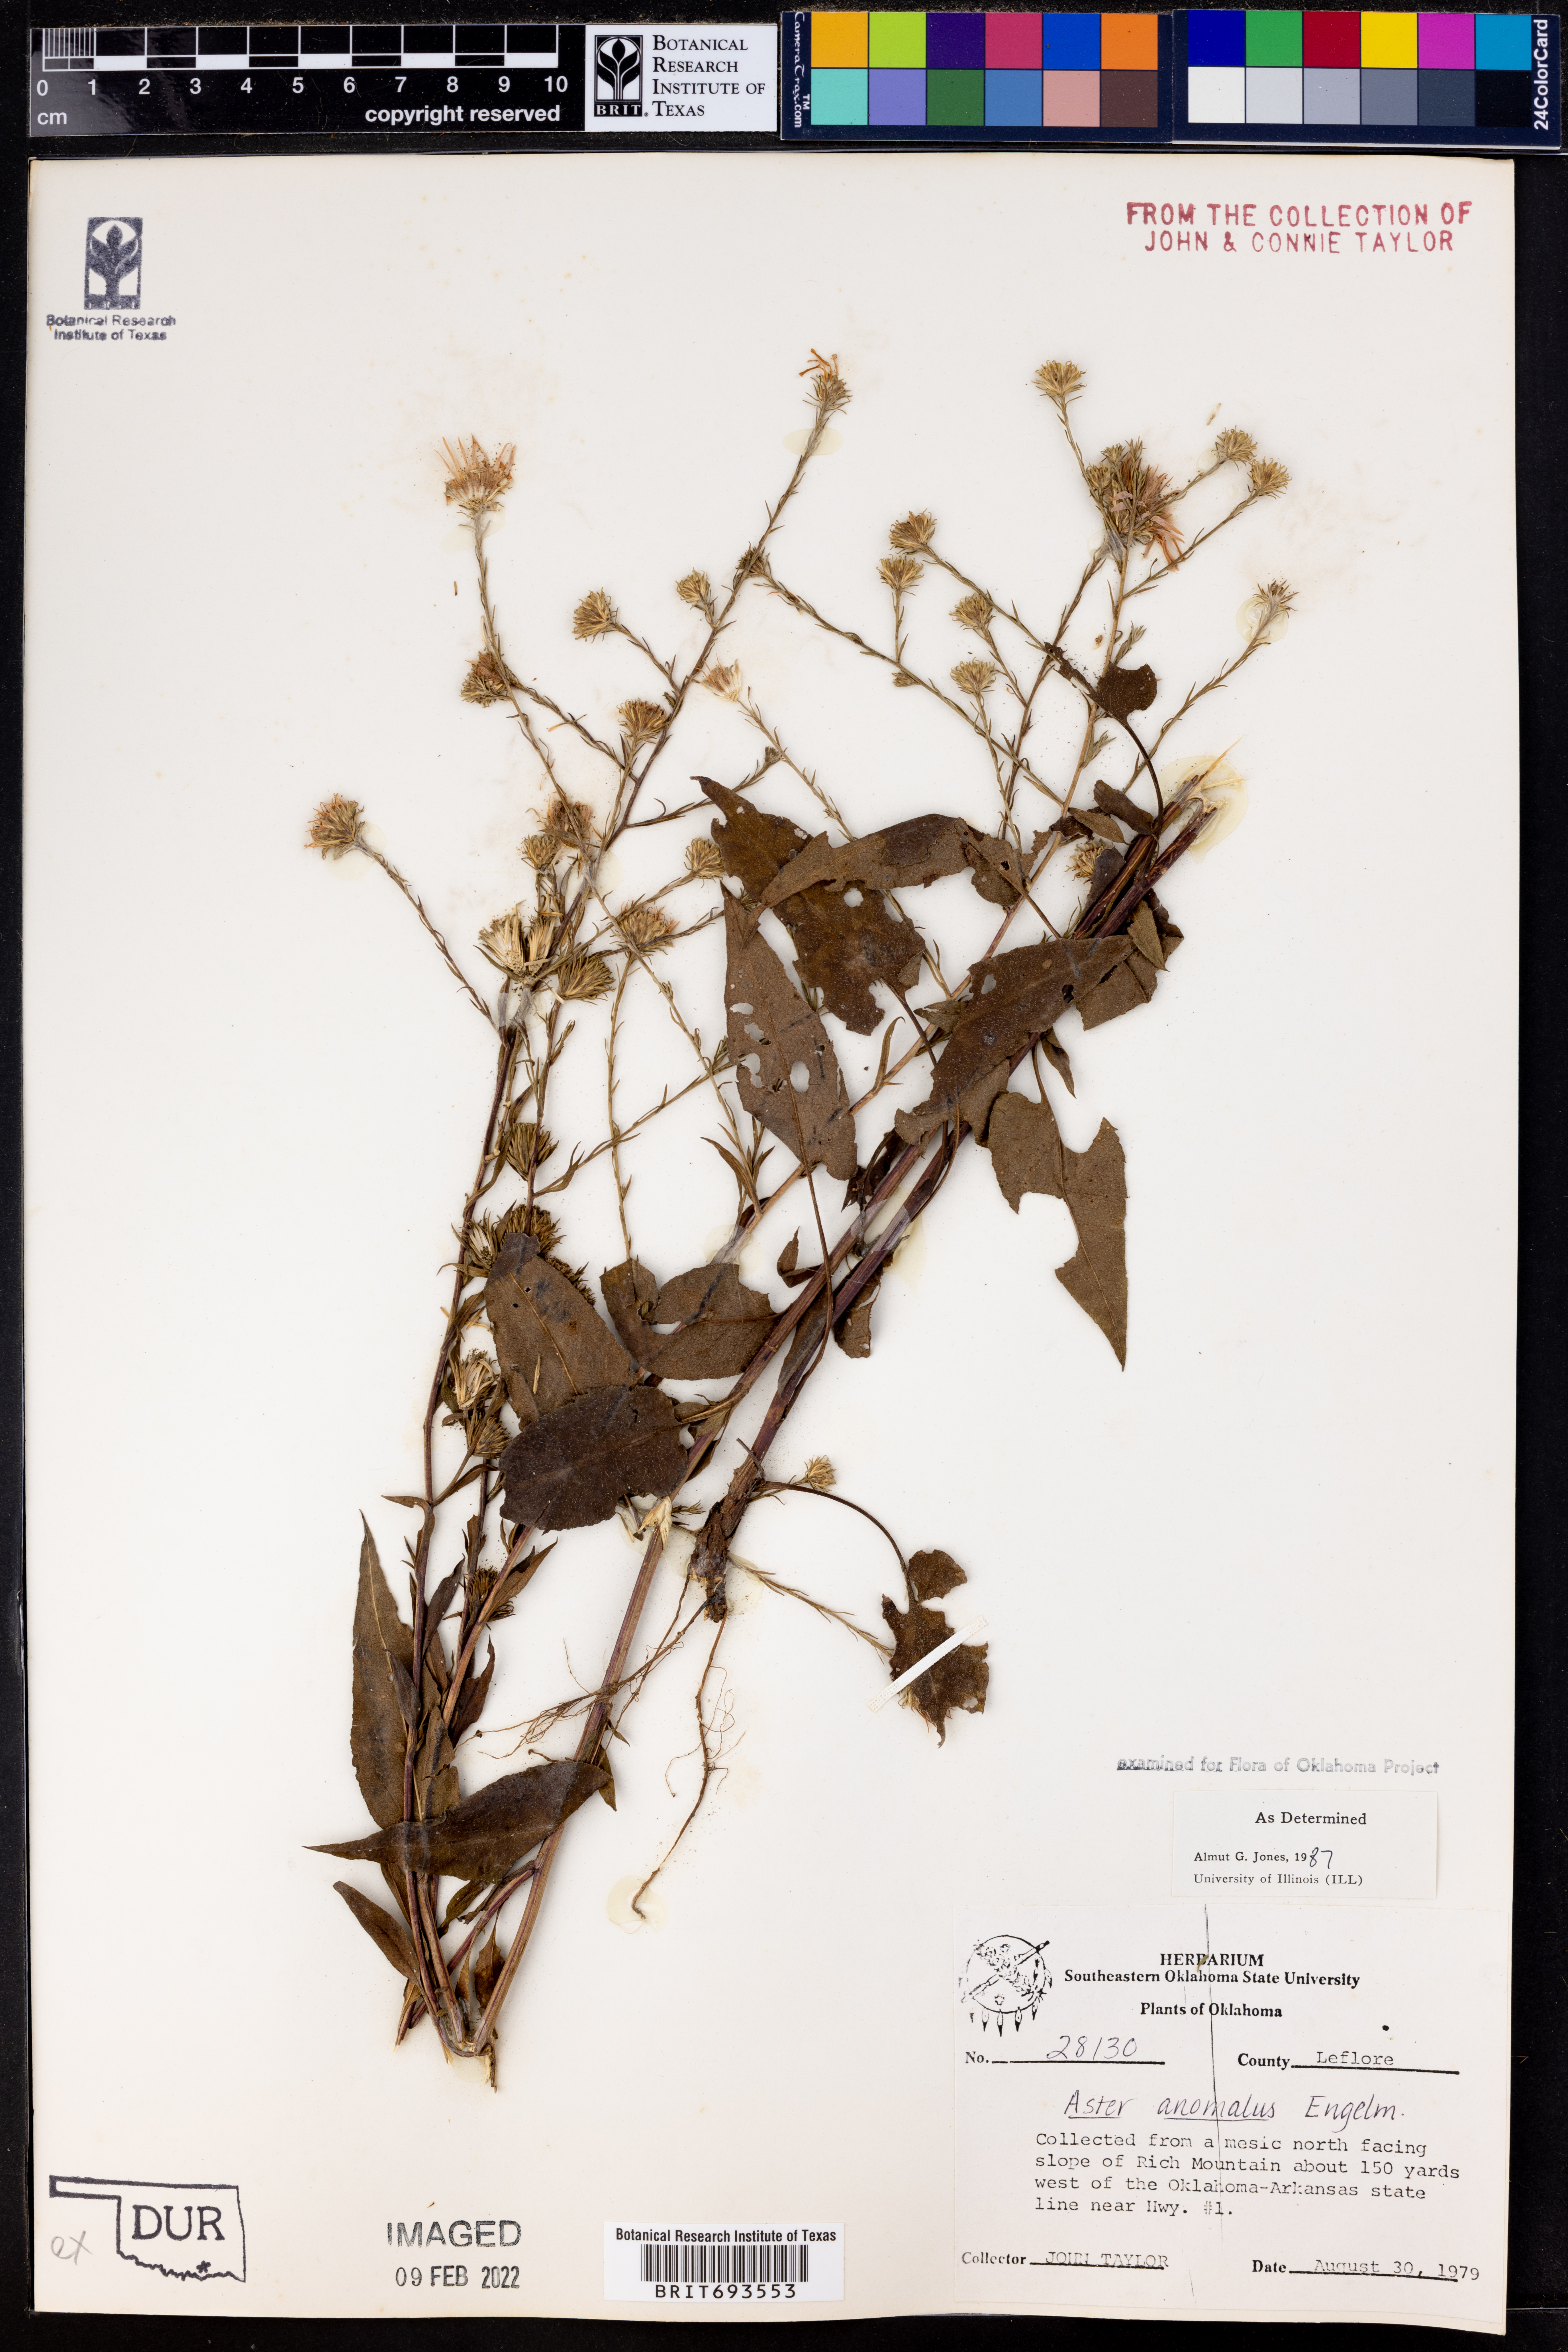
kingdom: Plantae
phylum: Tracheophyta
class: Magnoliopsida
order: Asterales
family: Asteraceae
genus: Symphyotrichum
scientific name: Symphyotrichum anomalum
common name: Many-ray aster
